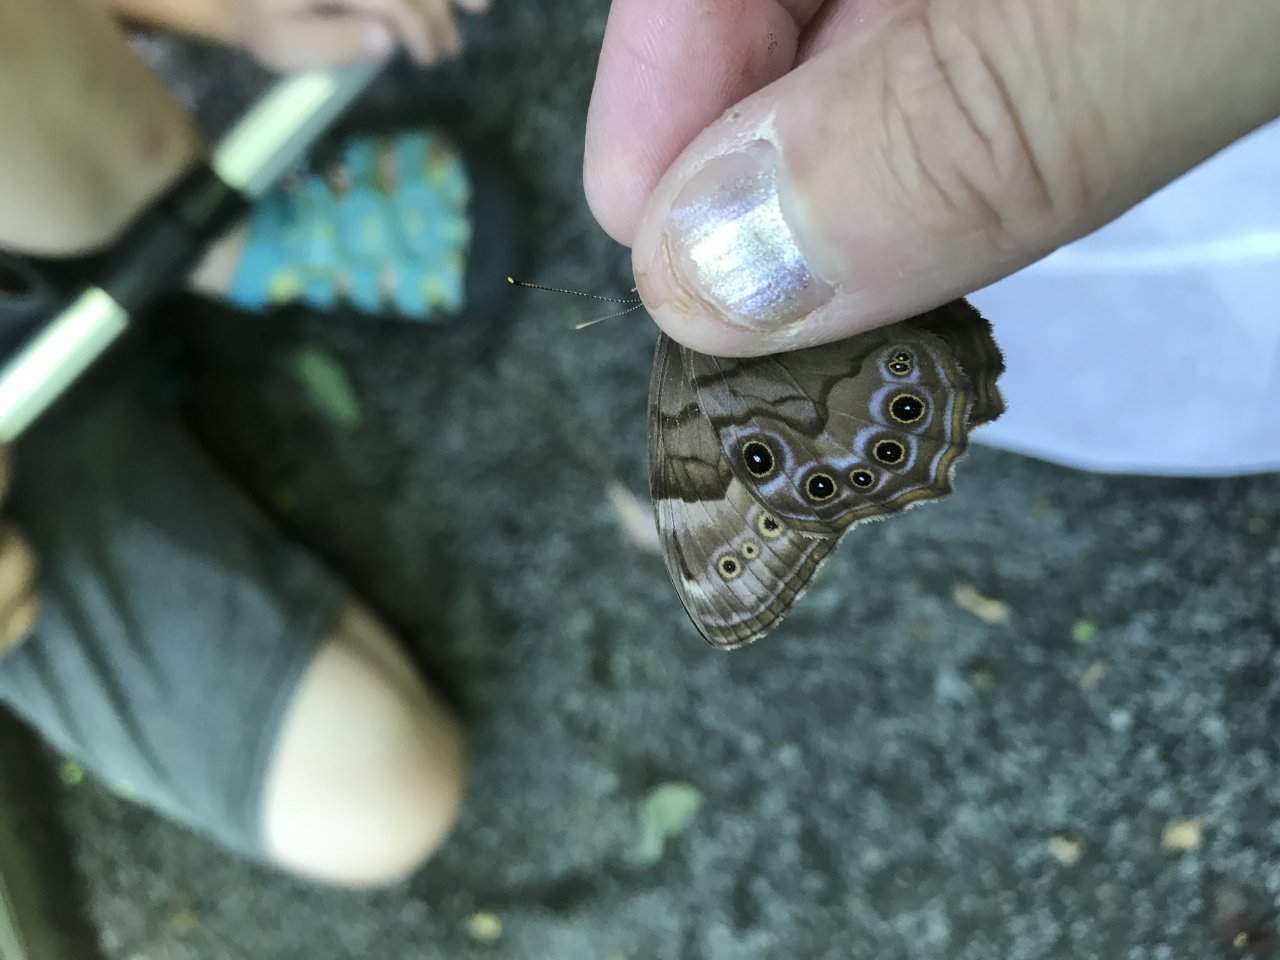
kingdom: Animalia
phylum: Arthropoda
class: Insecta
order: Lepidoptera
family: Nymphalidae
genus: Lethe
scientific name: Lethe anthedon
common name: Northern Pearly-Eye
